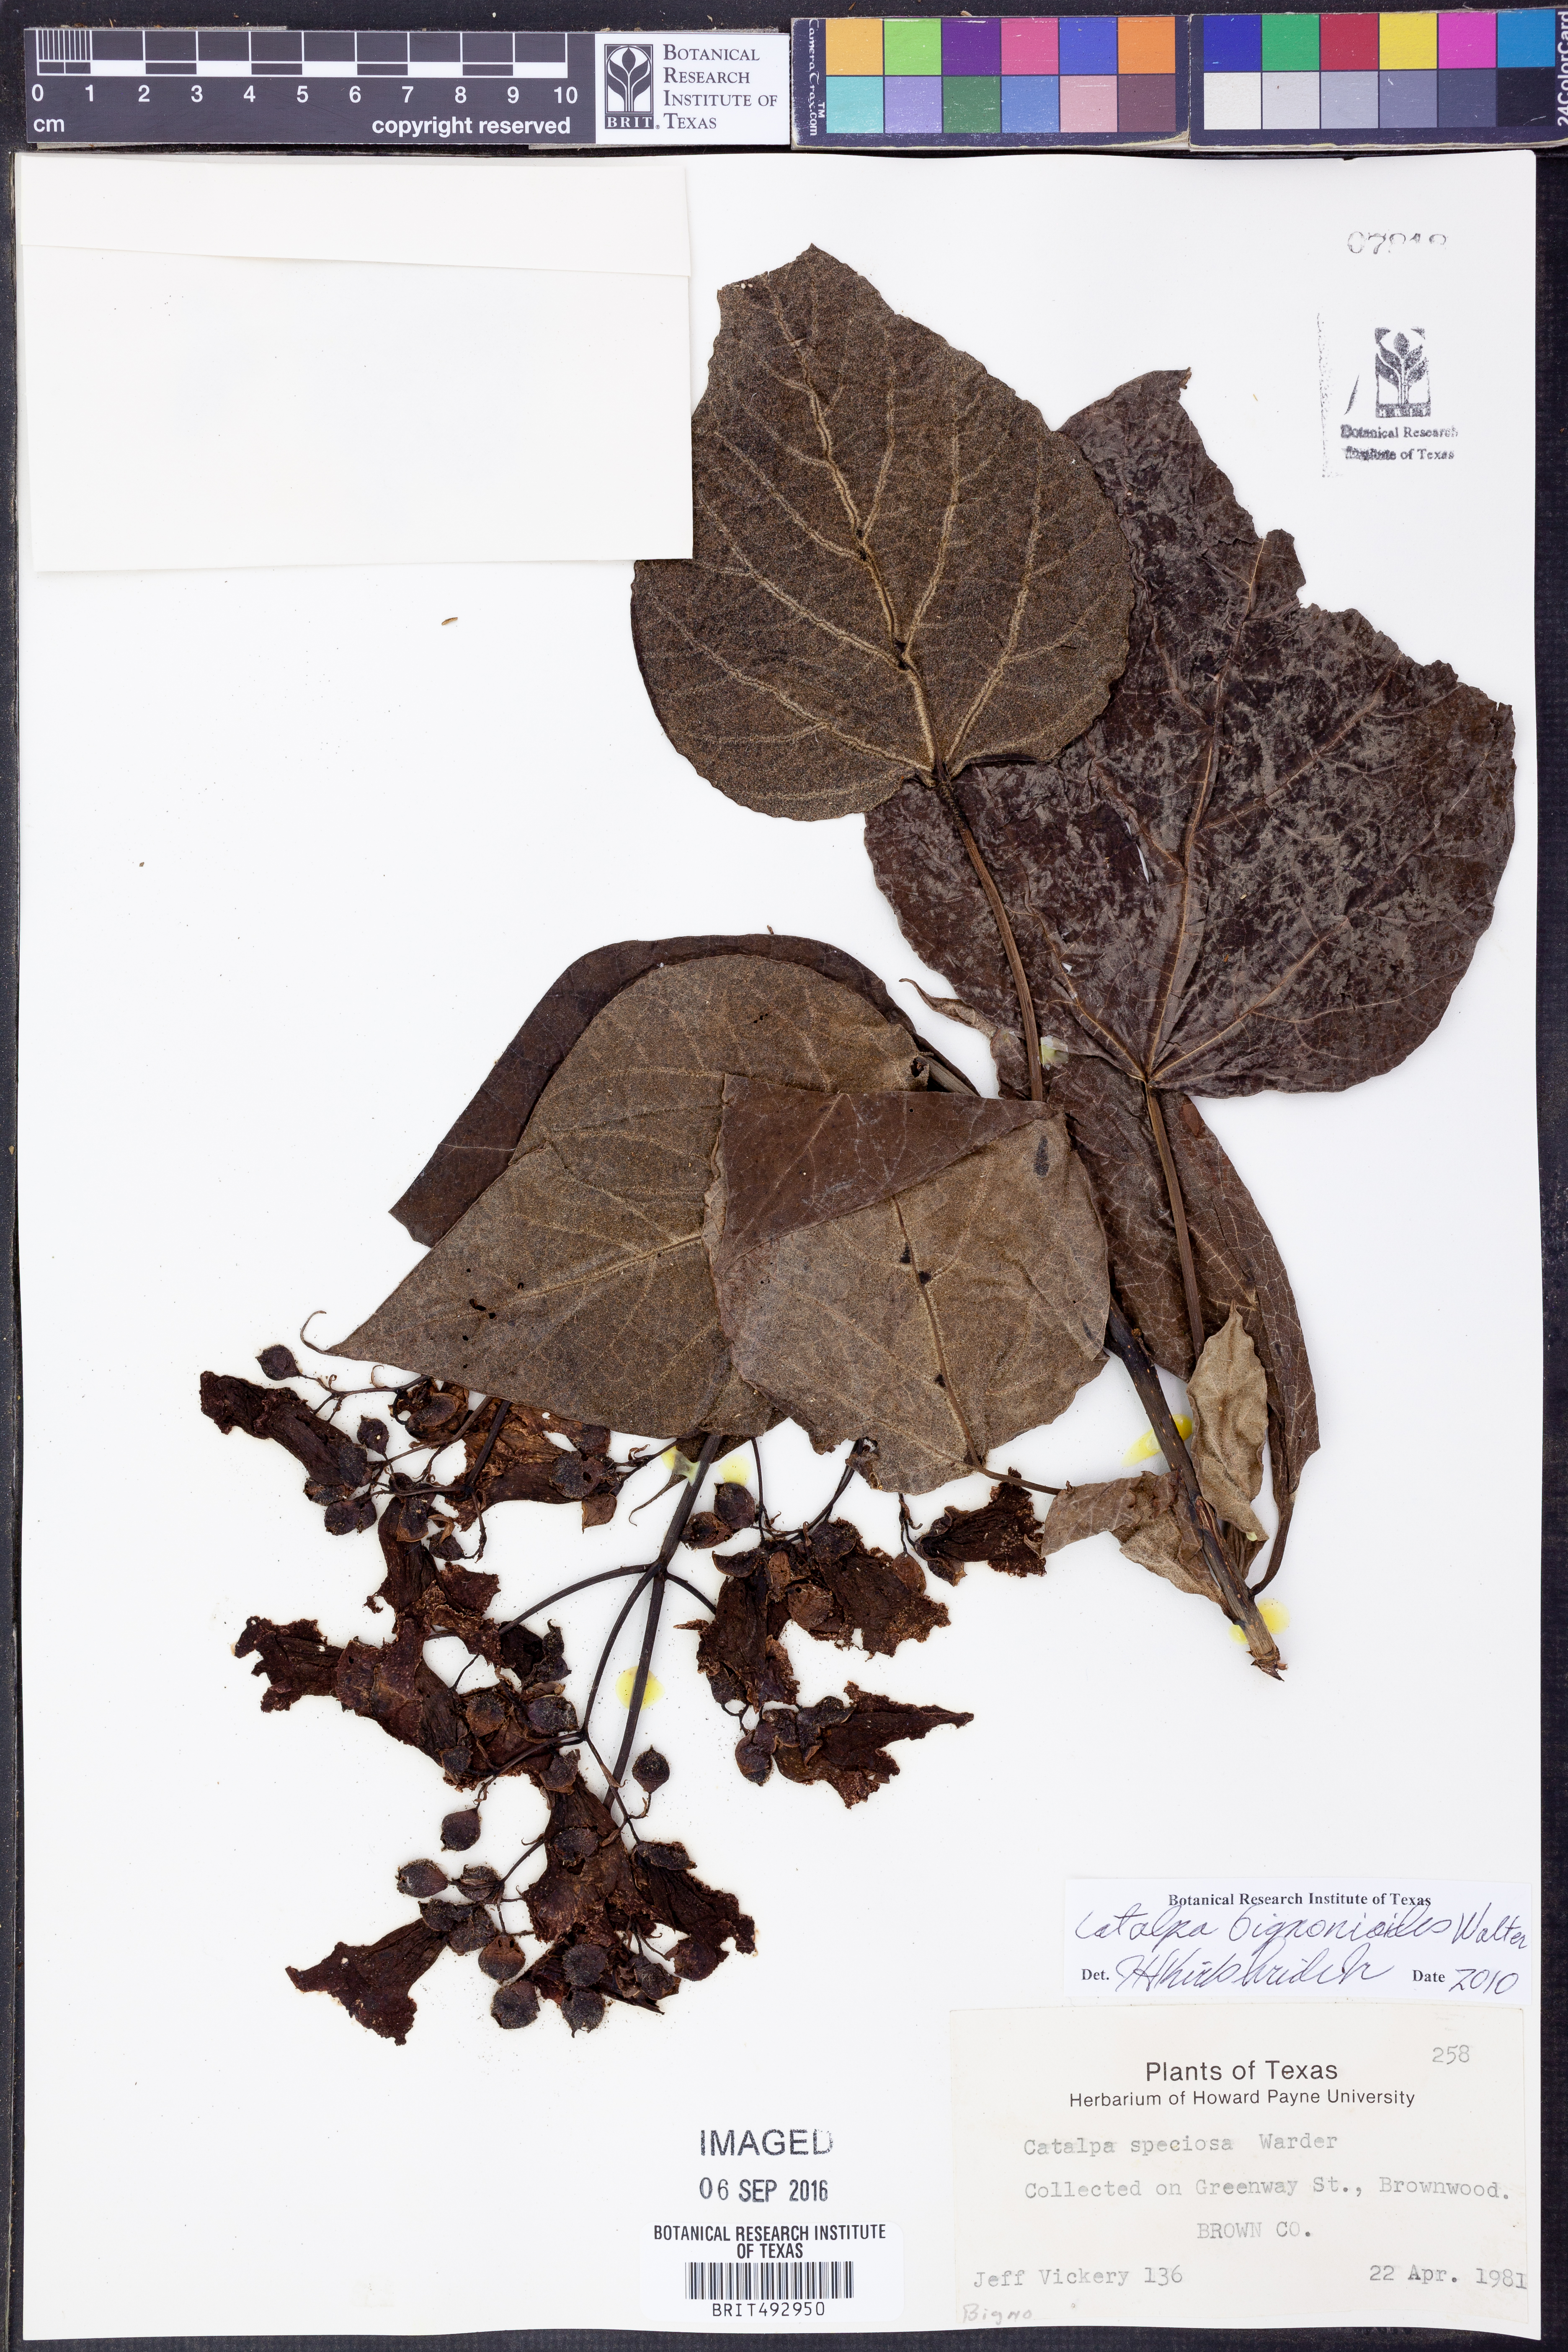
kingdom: Plantae
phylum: Tracheophyta
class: Magnoliopsida
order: Lamiales
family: Bignoniaceae
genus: Catalpa
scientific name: Catalpa bignonioides
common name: Southern catalpa
